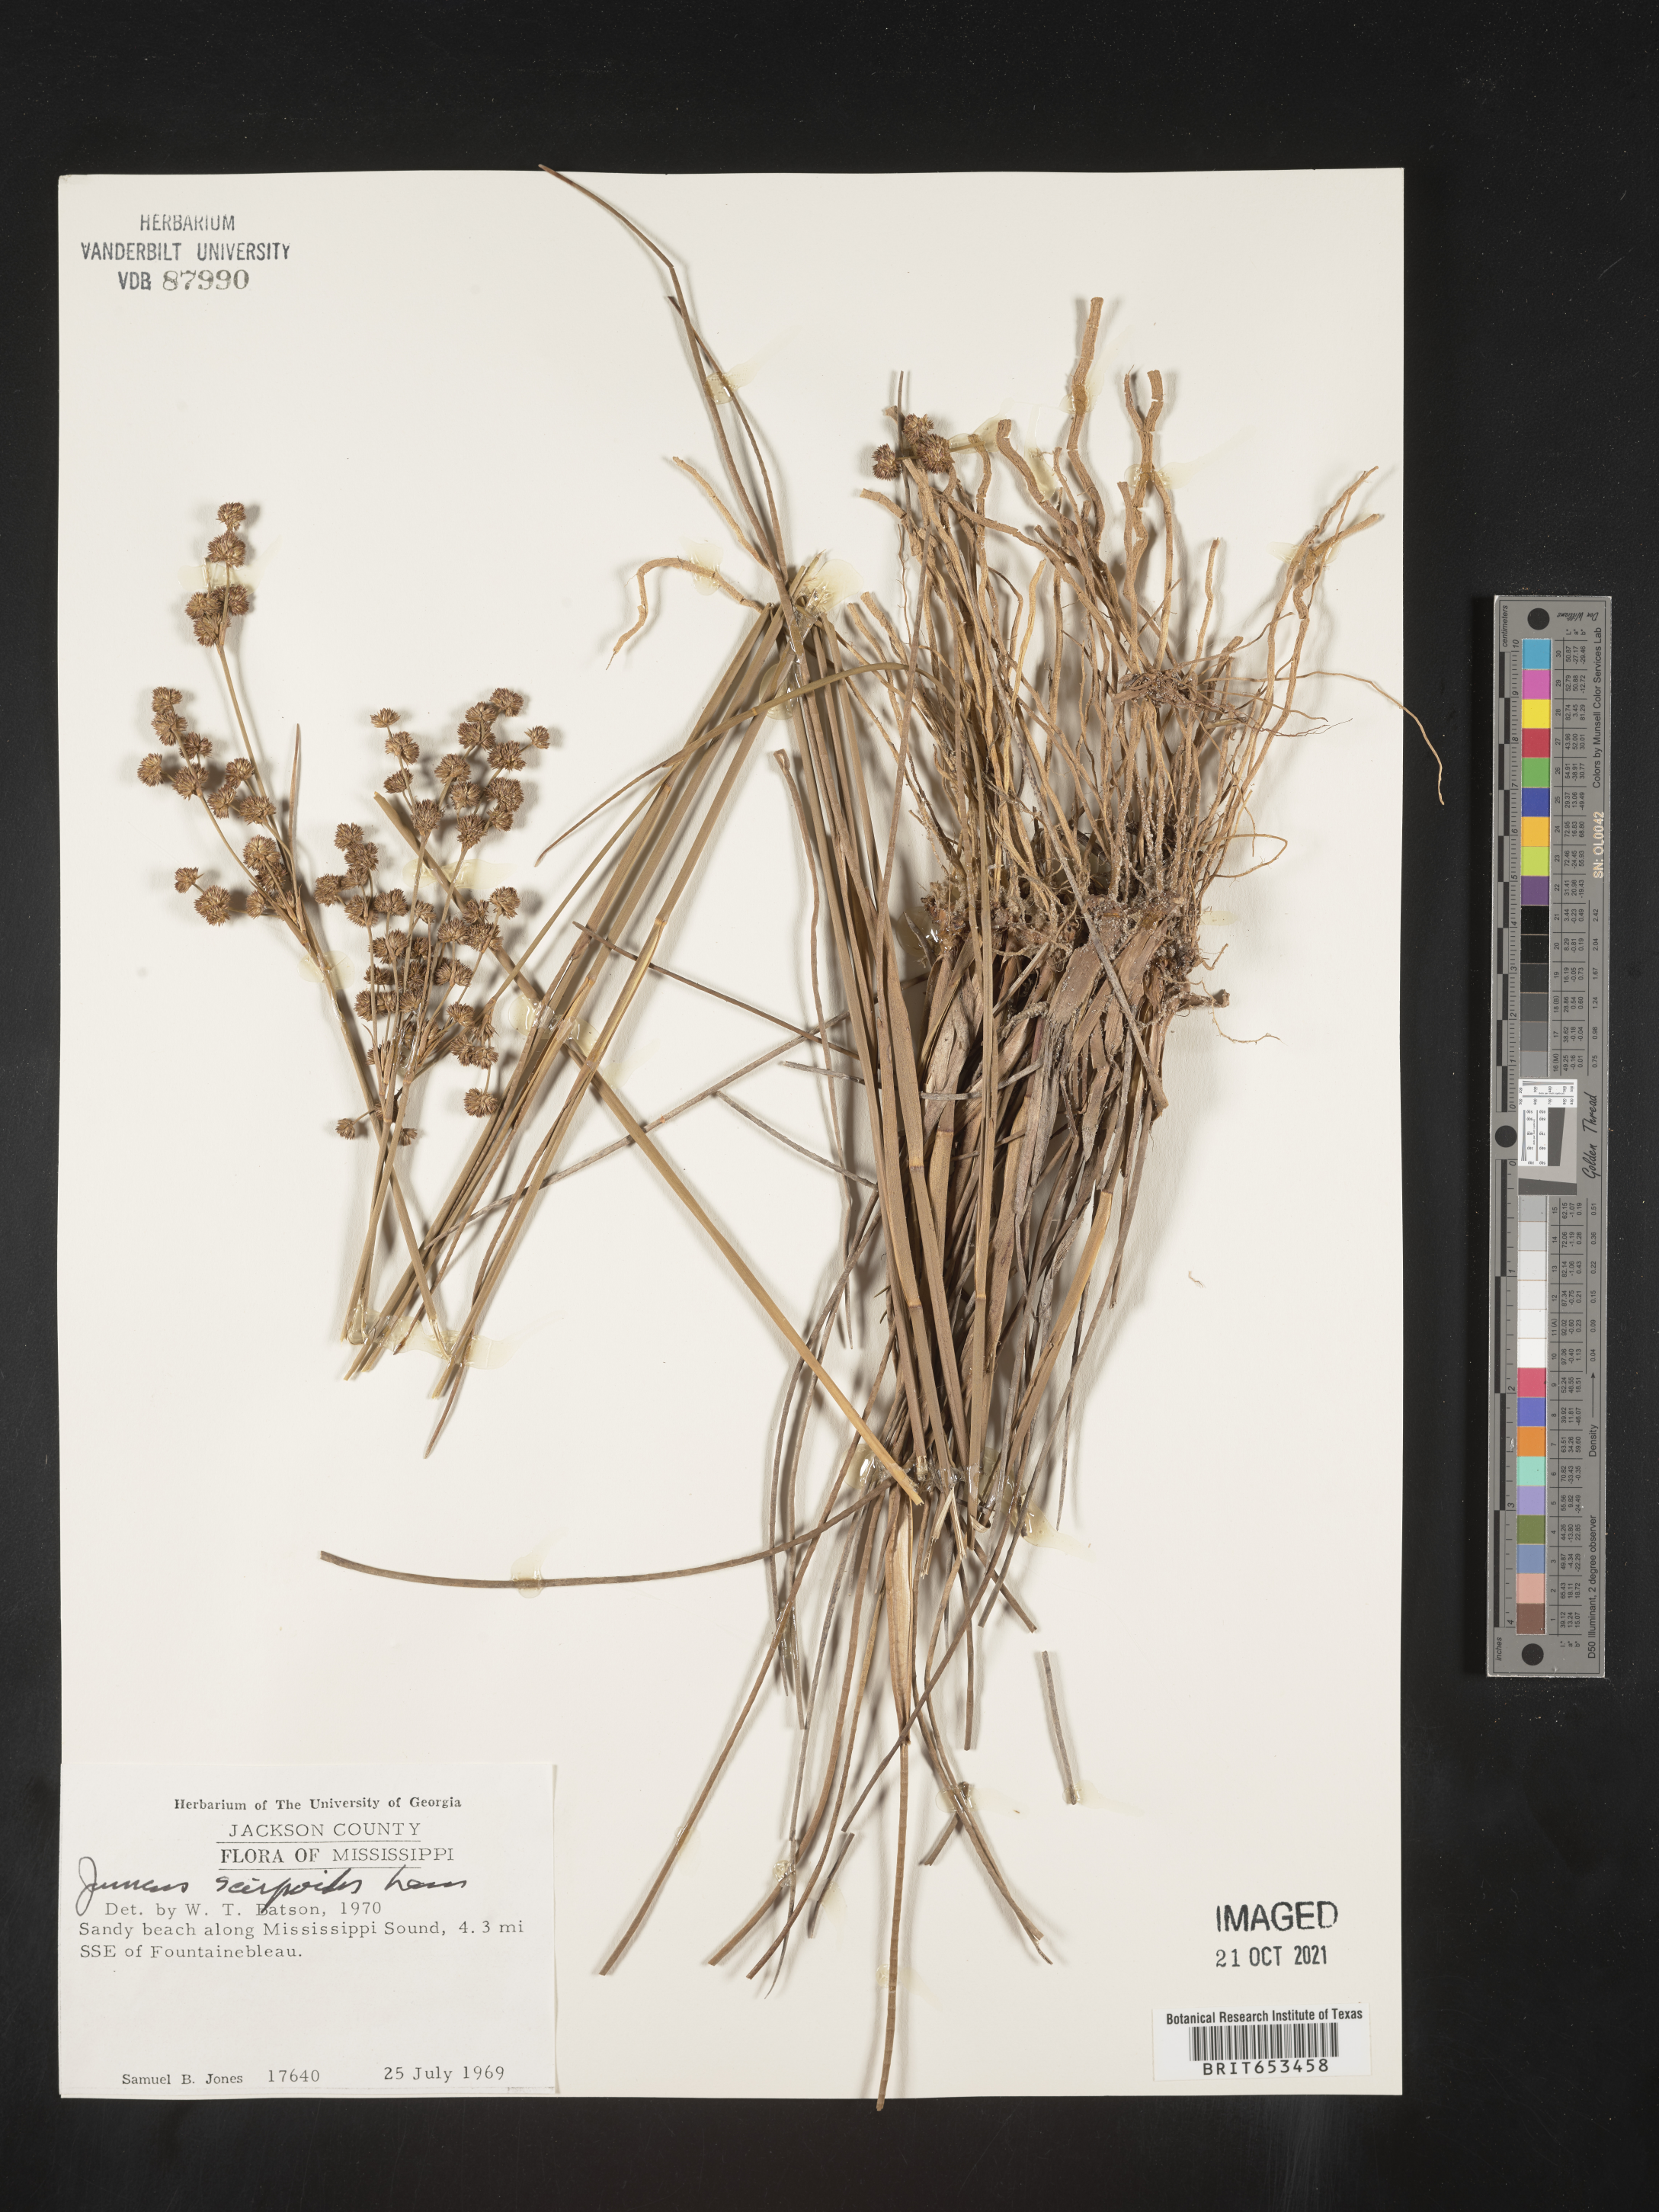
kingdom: Plantae
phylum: Tracheophyta
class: Liliopsida
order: Poales
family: Juncaceae
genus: Juncus
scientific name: Juncus scirpoides
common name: Needlepod rush
